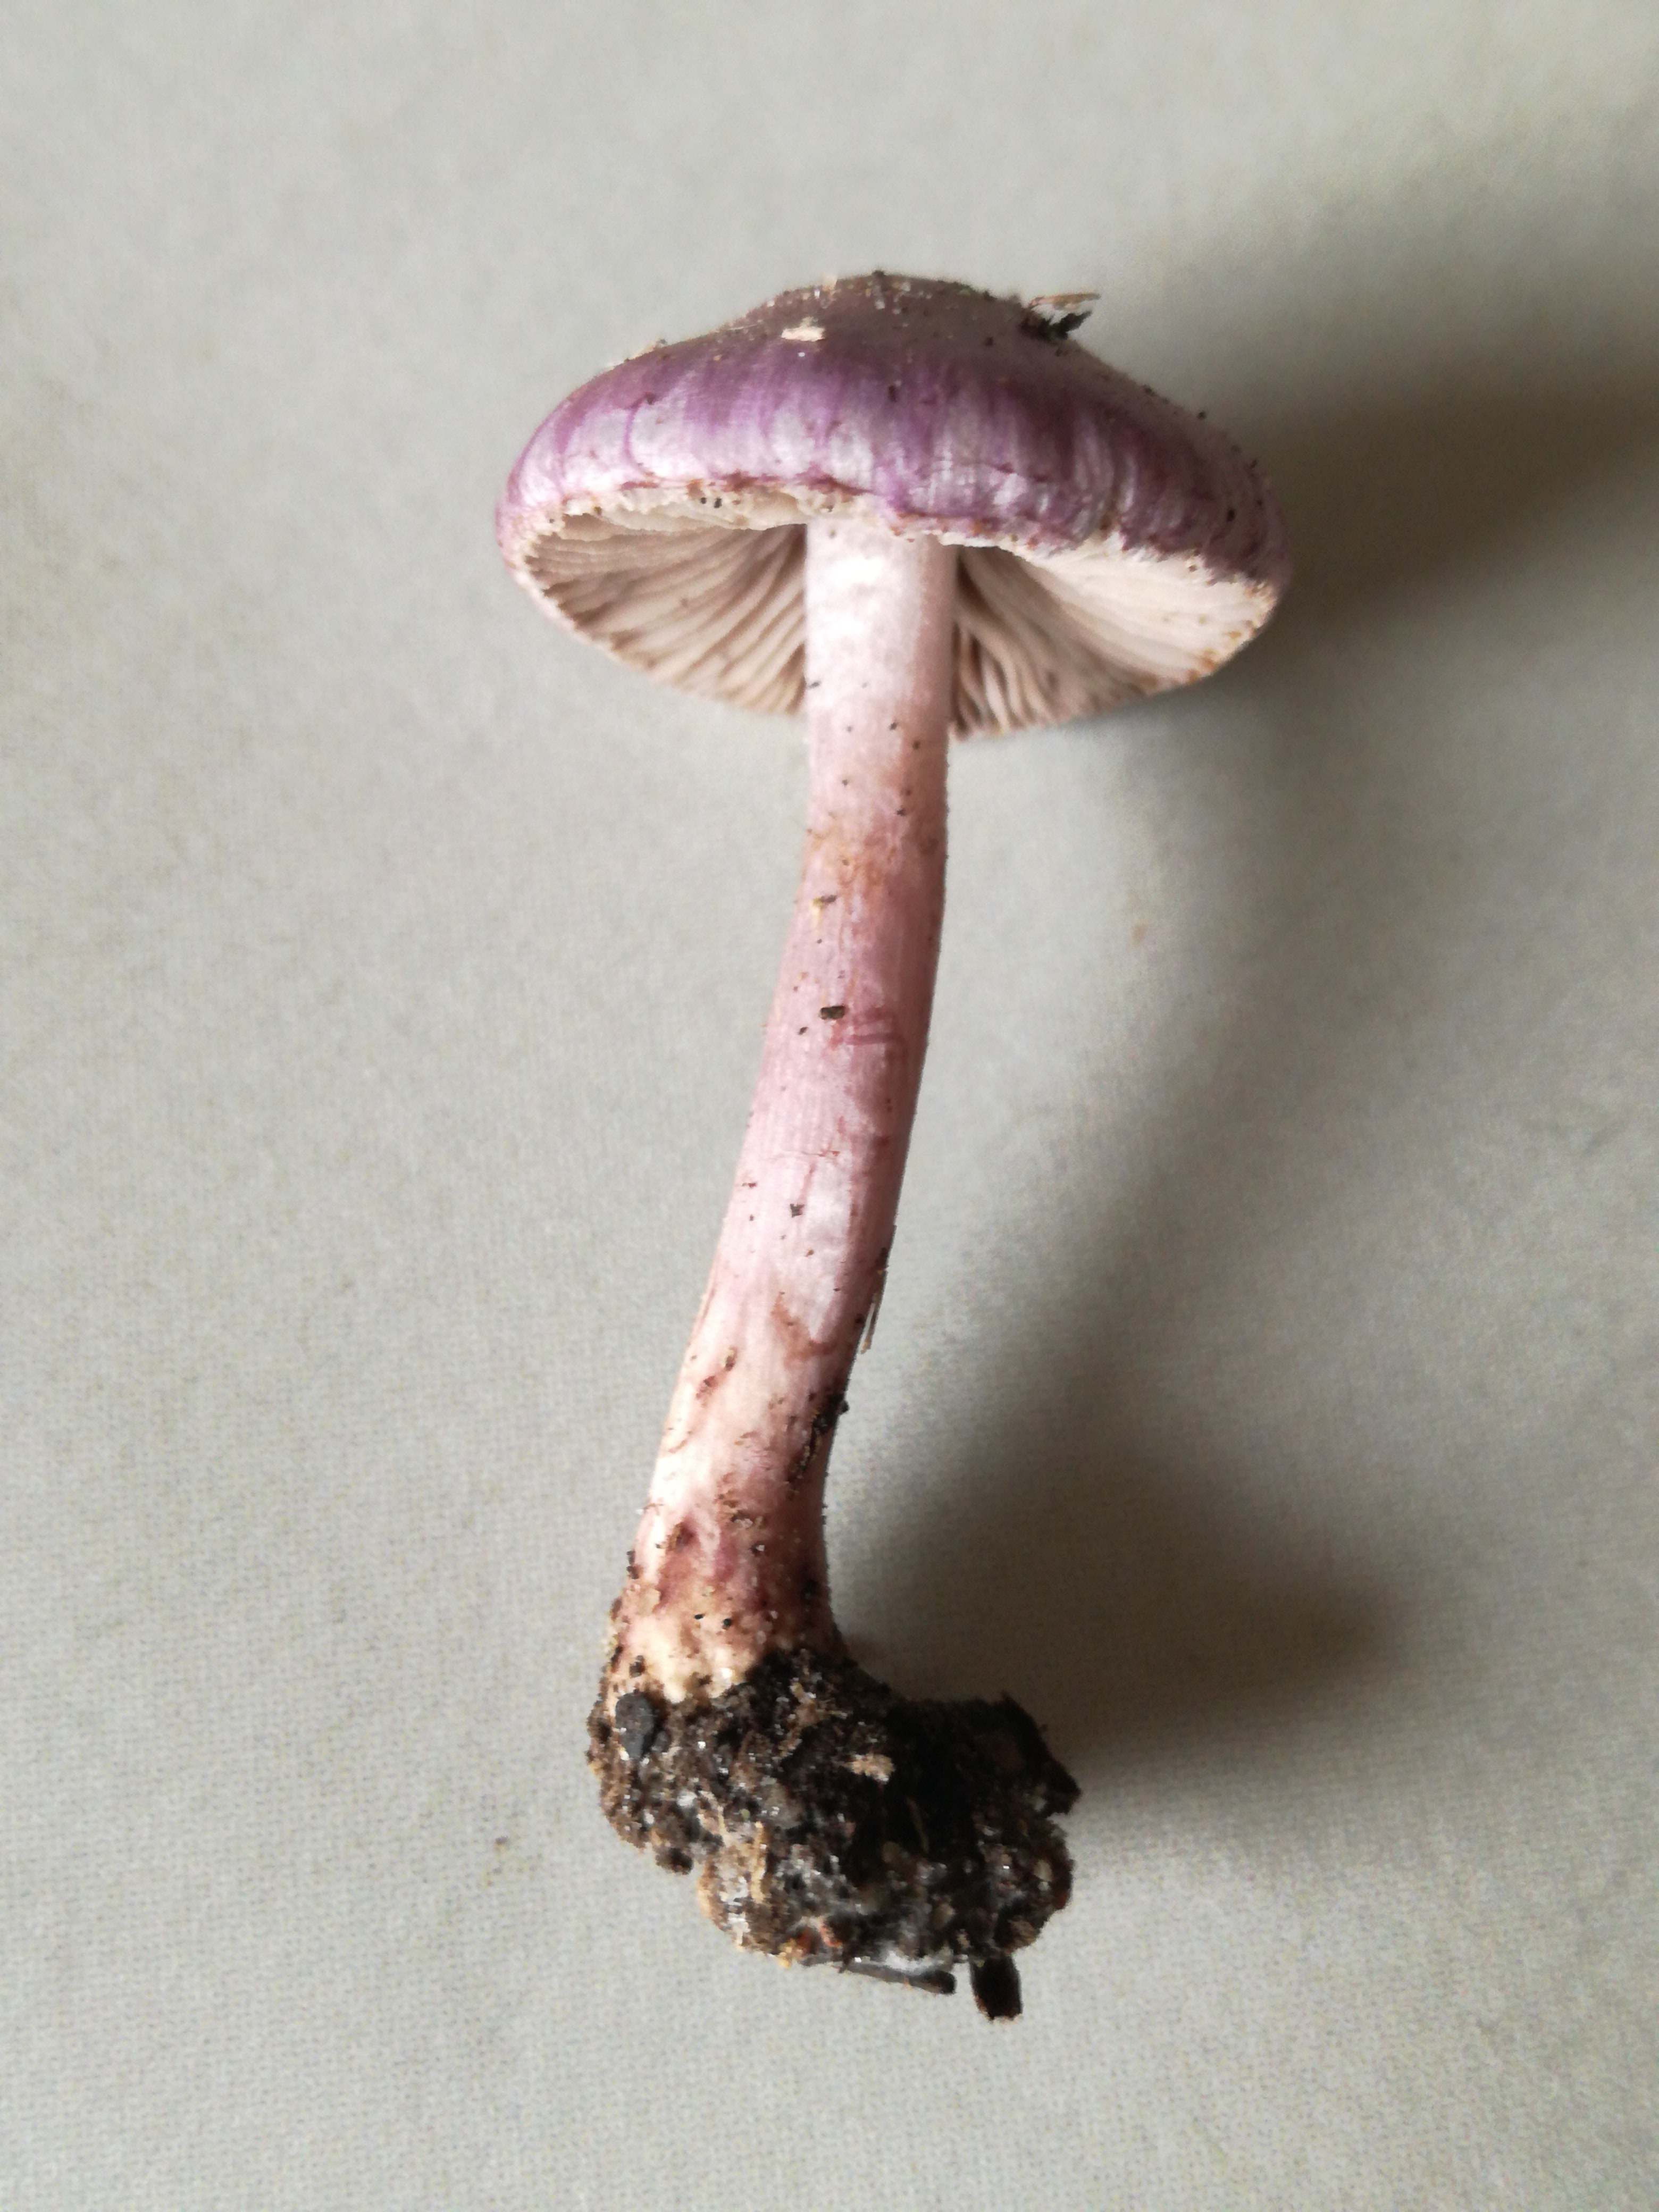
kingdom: Fungi
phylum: Basidiomycota
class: Agaricomycetes
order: Agaricales
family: Inocybaceae
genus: Inocybe
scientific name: Inocybe geophylla
